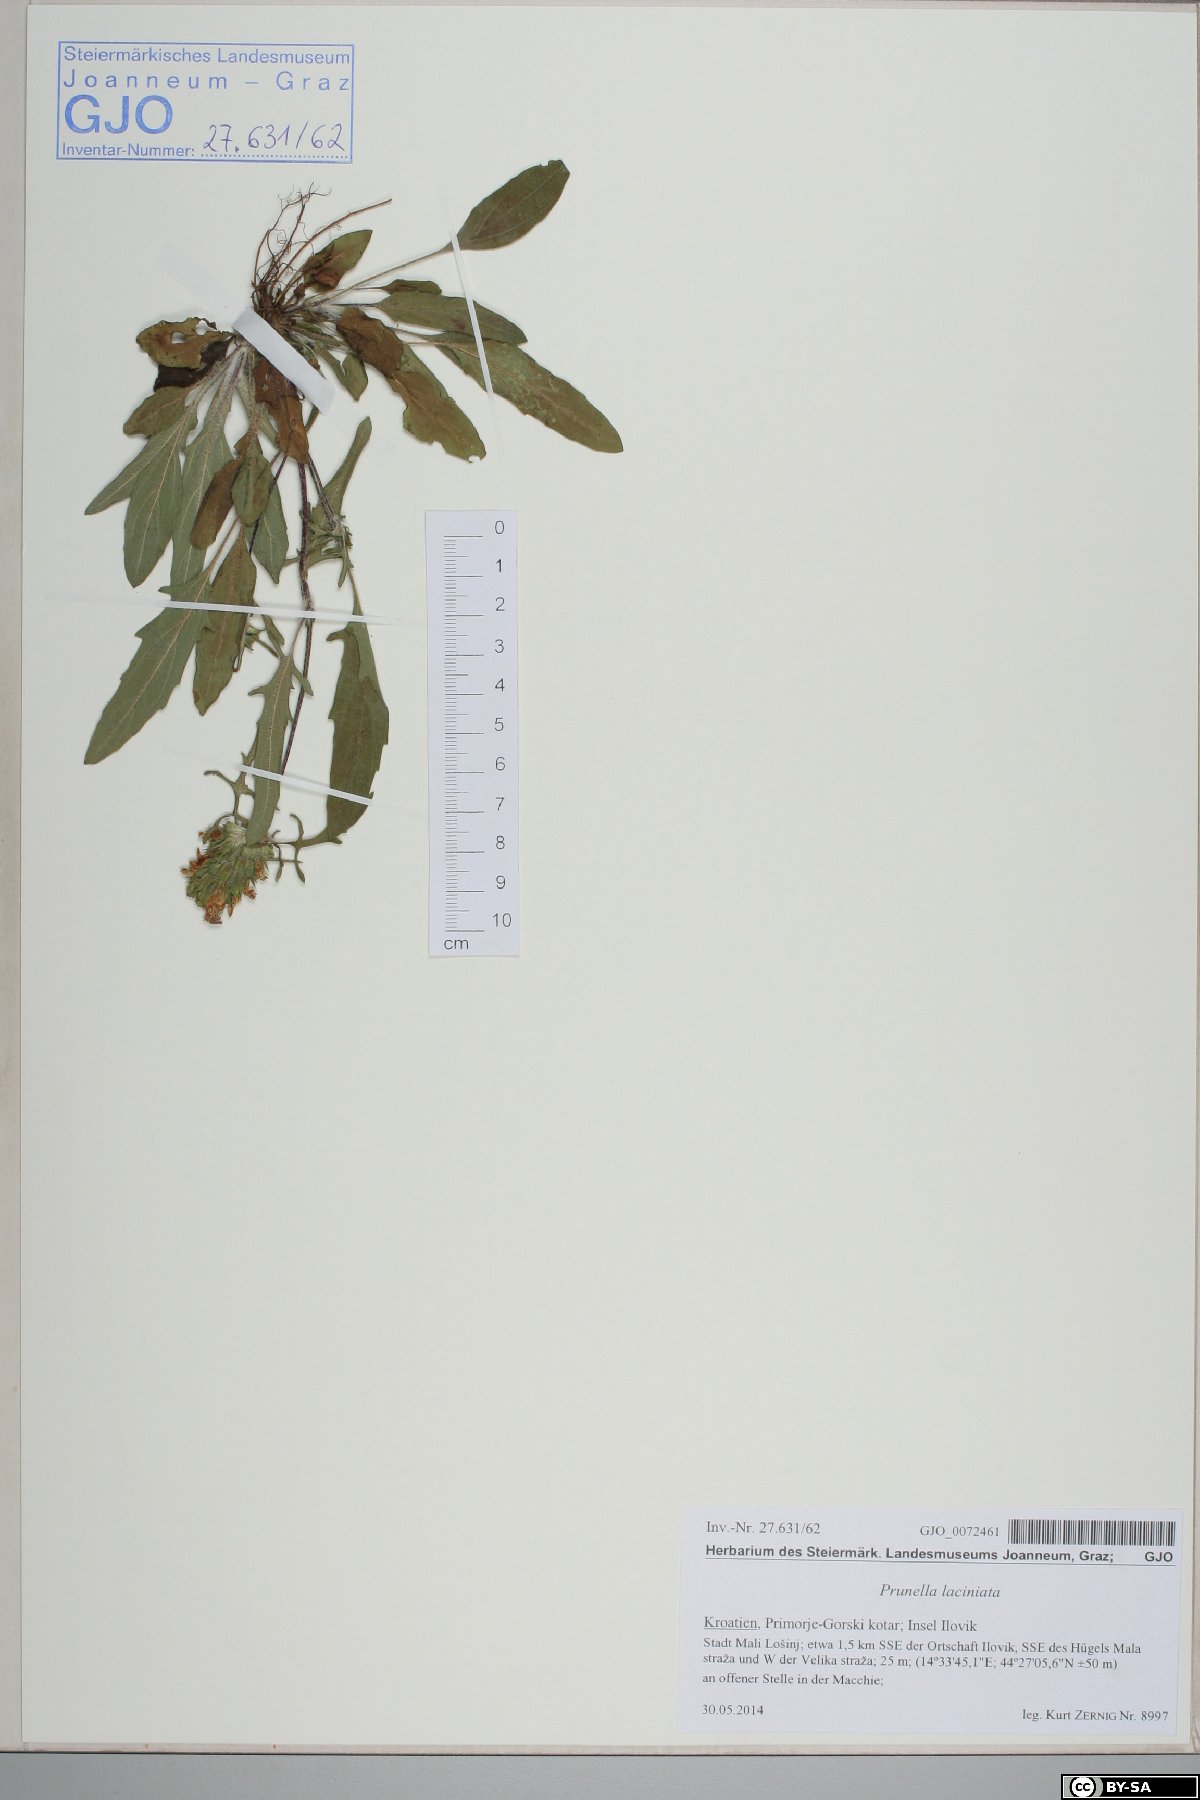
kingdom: Plantae
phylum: Tracheophyta
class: Magnoliopsida
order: Lamiales
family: Lamiaceae
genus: Prunella
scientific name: Prunella laciniata
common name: Cut-leaved selfheal
